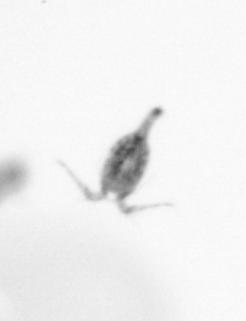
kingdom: Animalia
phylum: Arthropoda
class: Copepoda
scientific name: Copepoda
